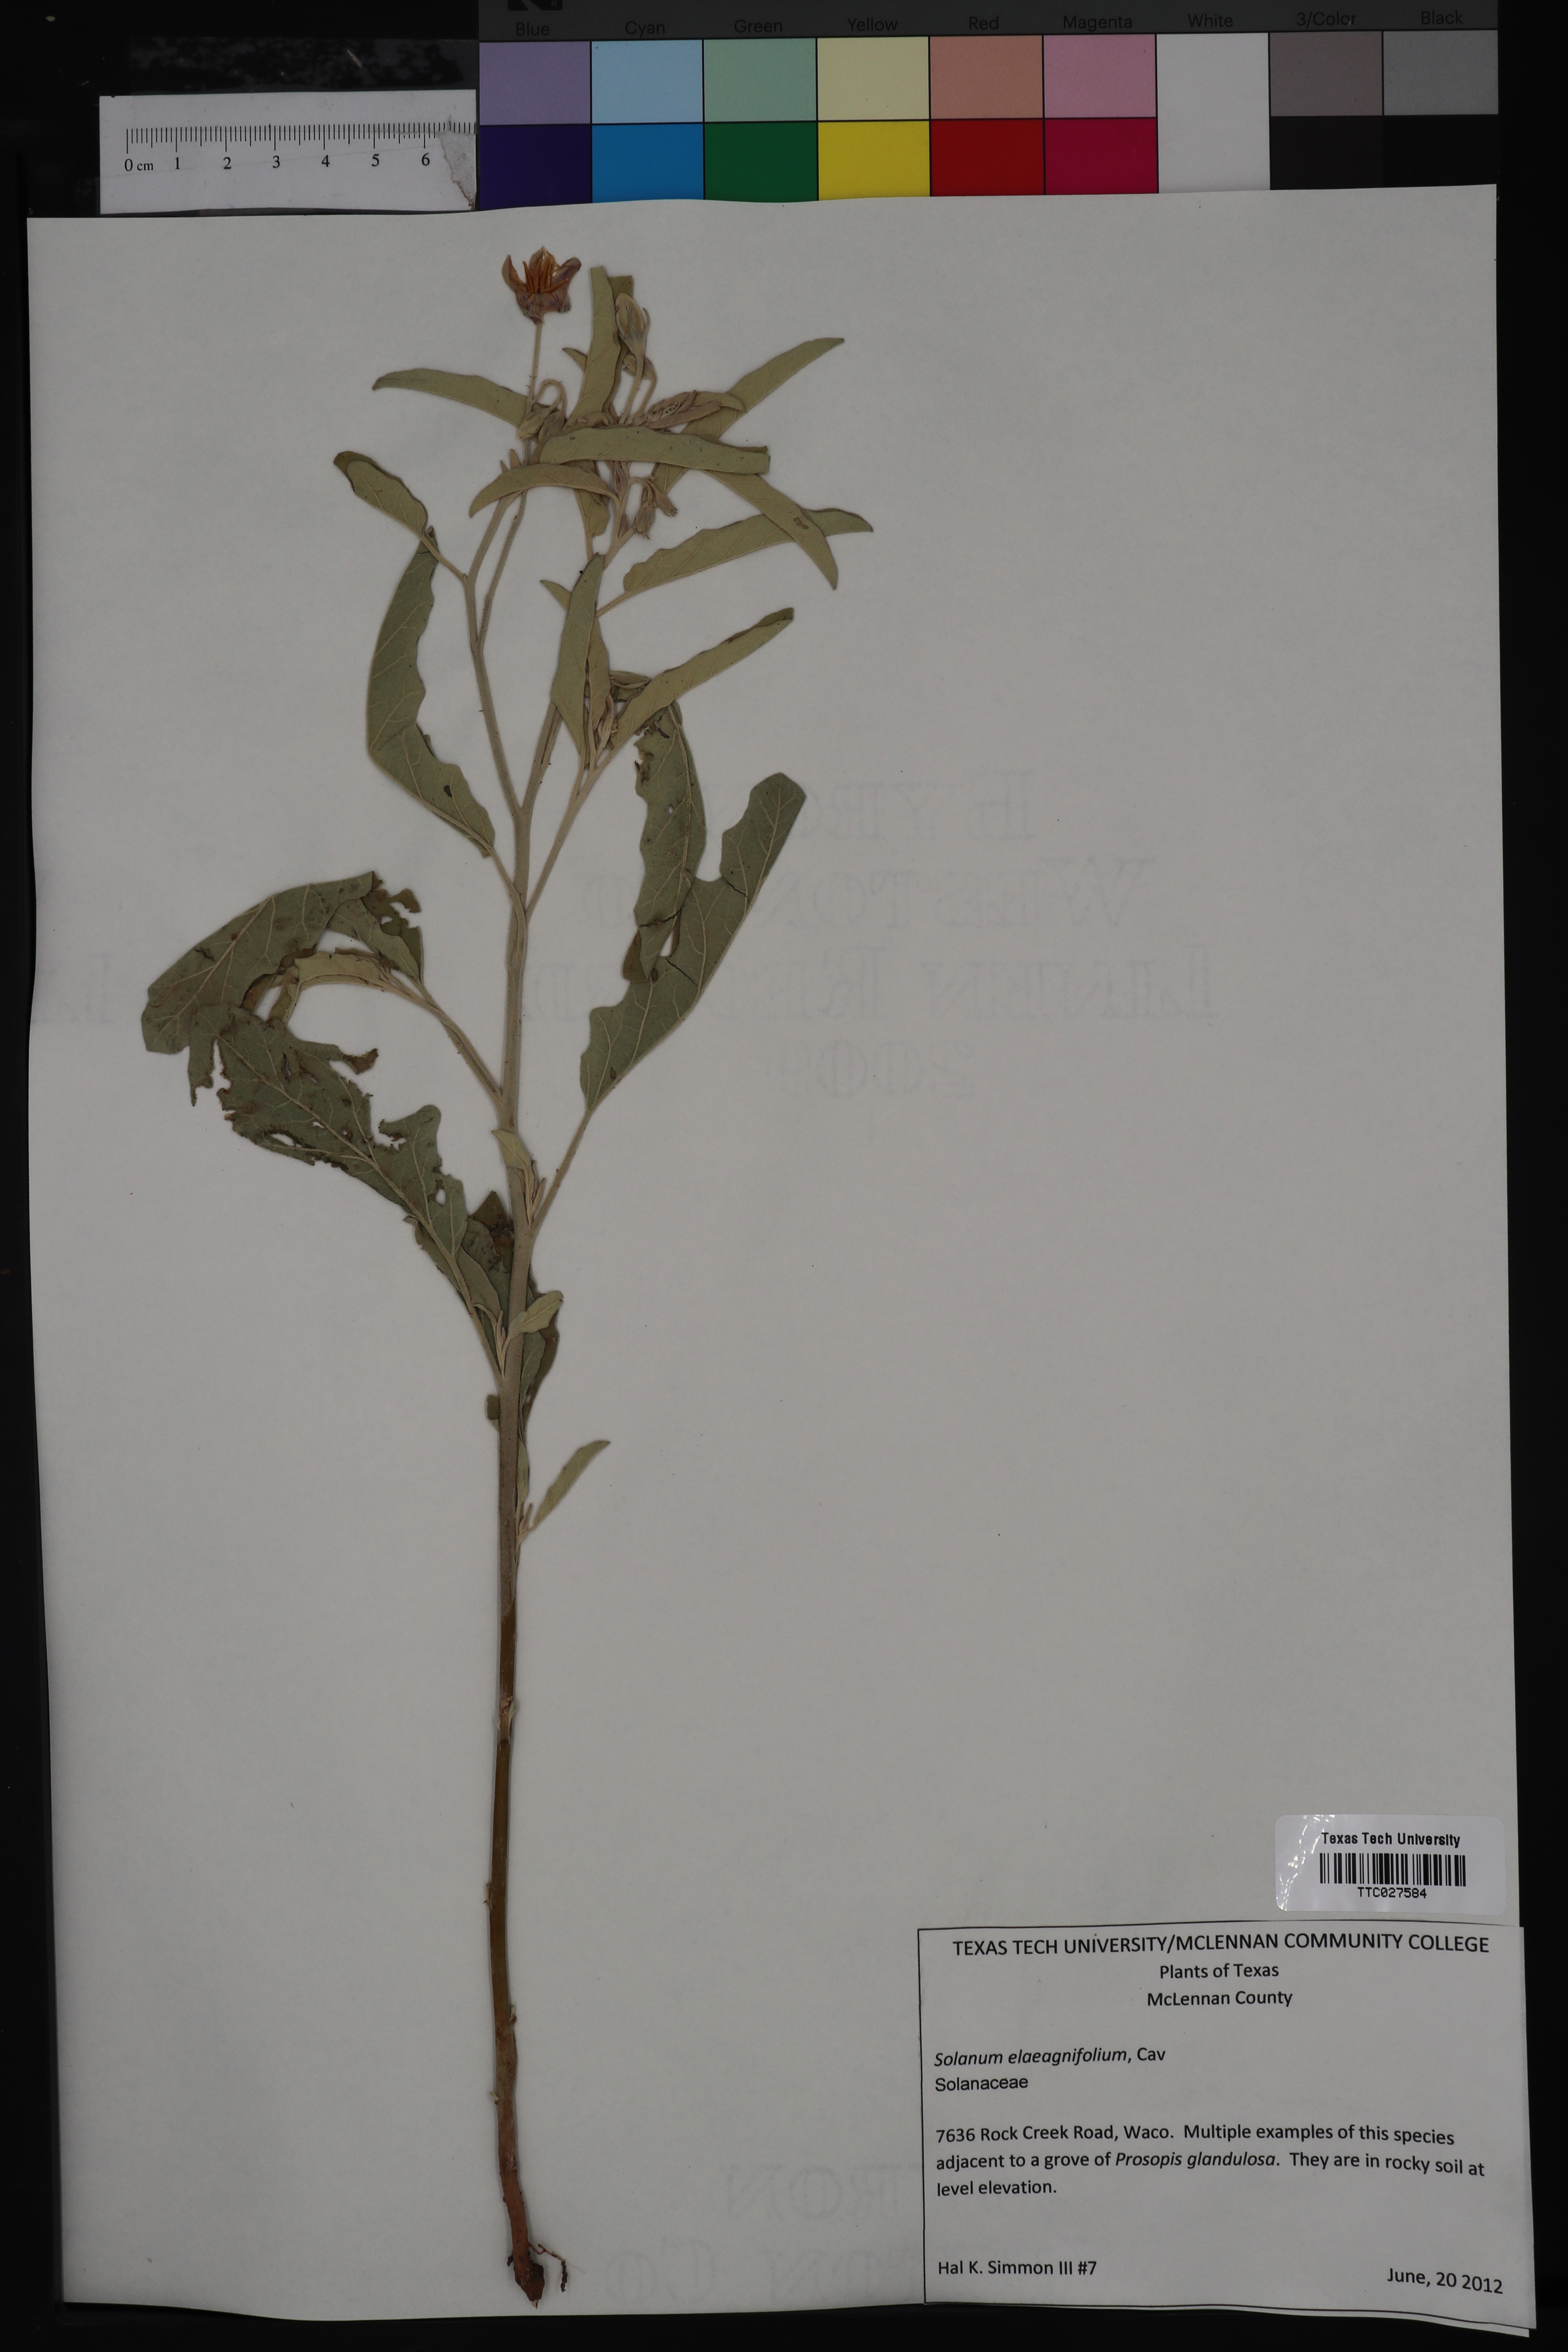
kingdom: Plantae
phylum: Tracheophyta
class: Magnoliopsida
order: Solanales
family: Solanaceae
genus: Solanum
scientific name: Solanum elaeagnifolium
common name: Silverleaf nightshade
